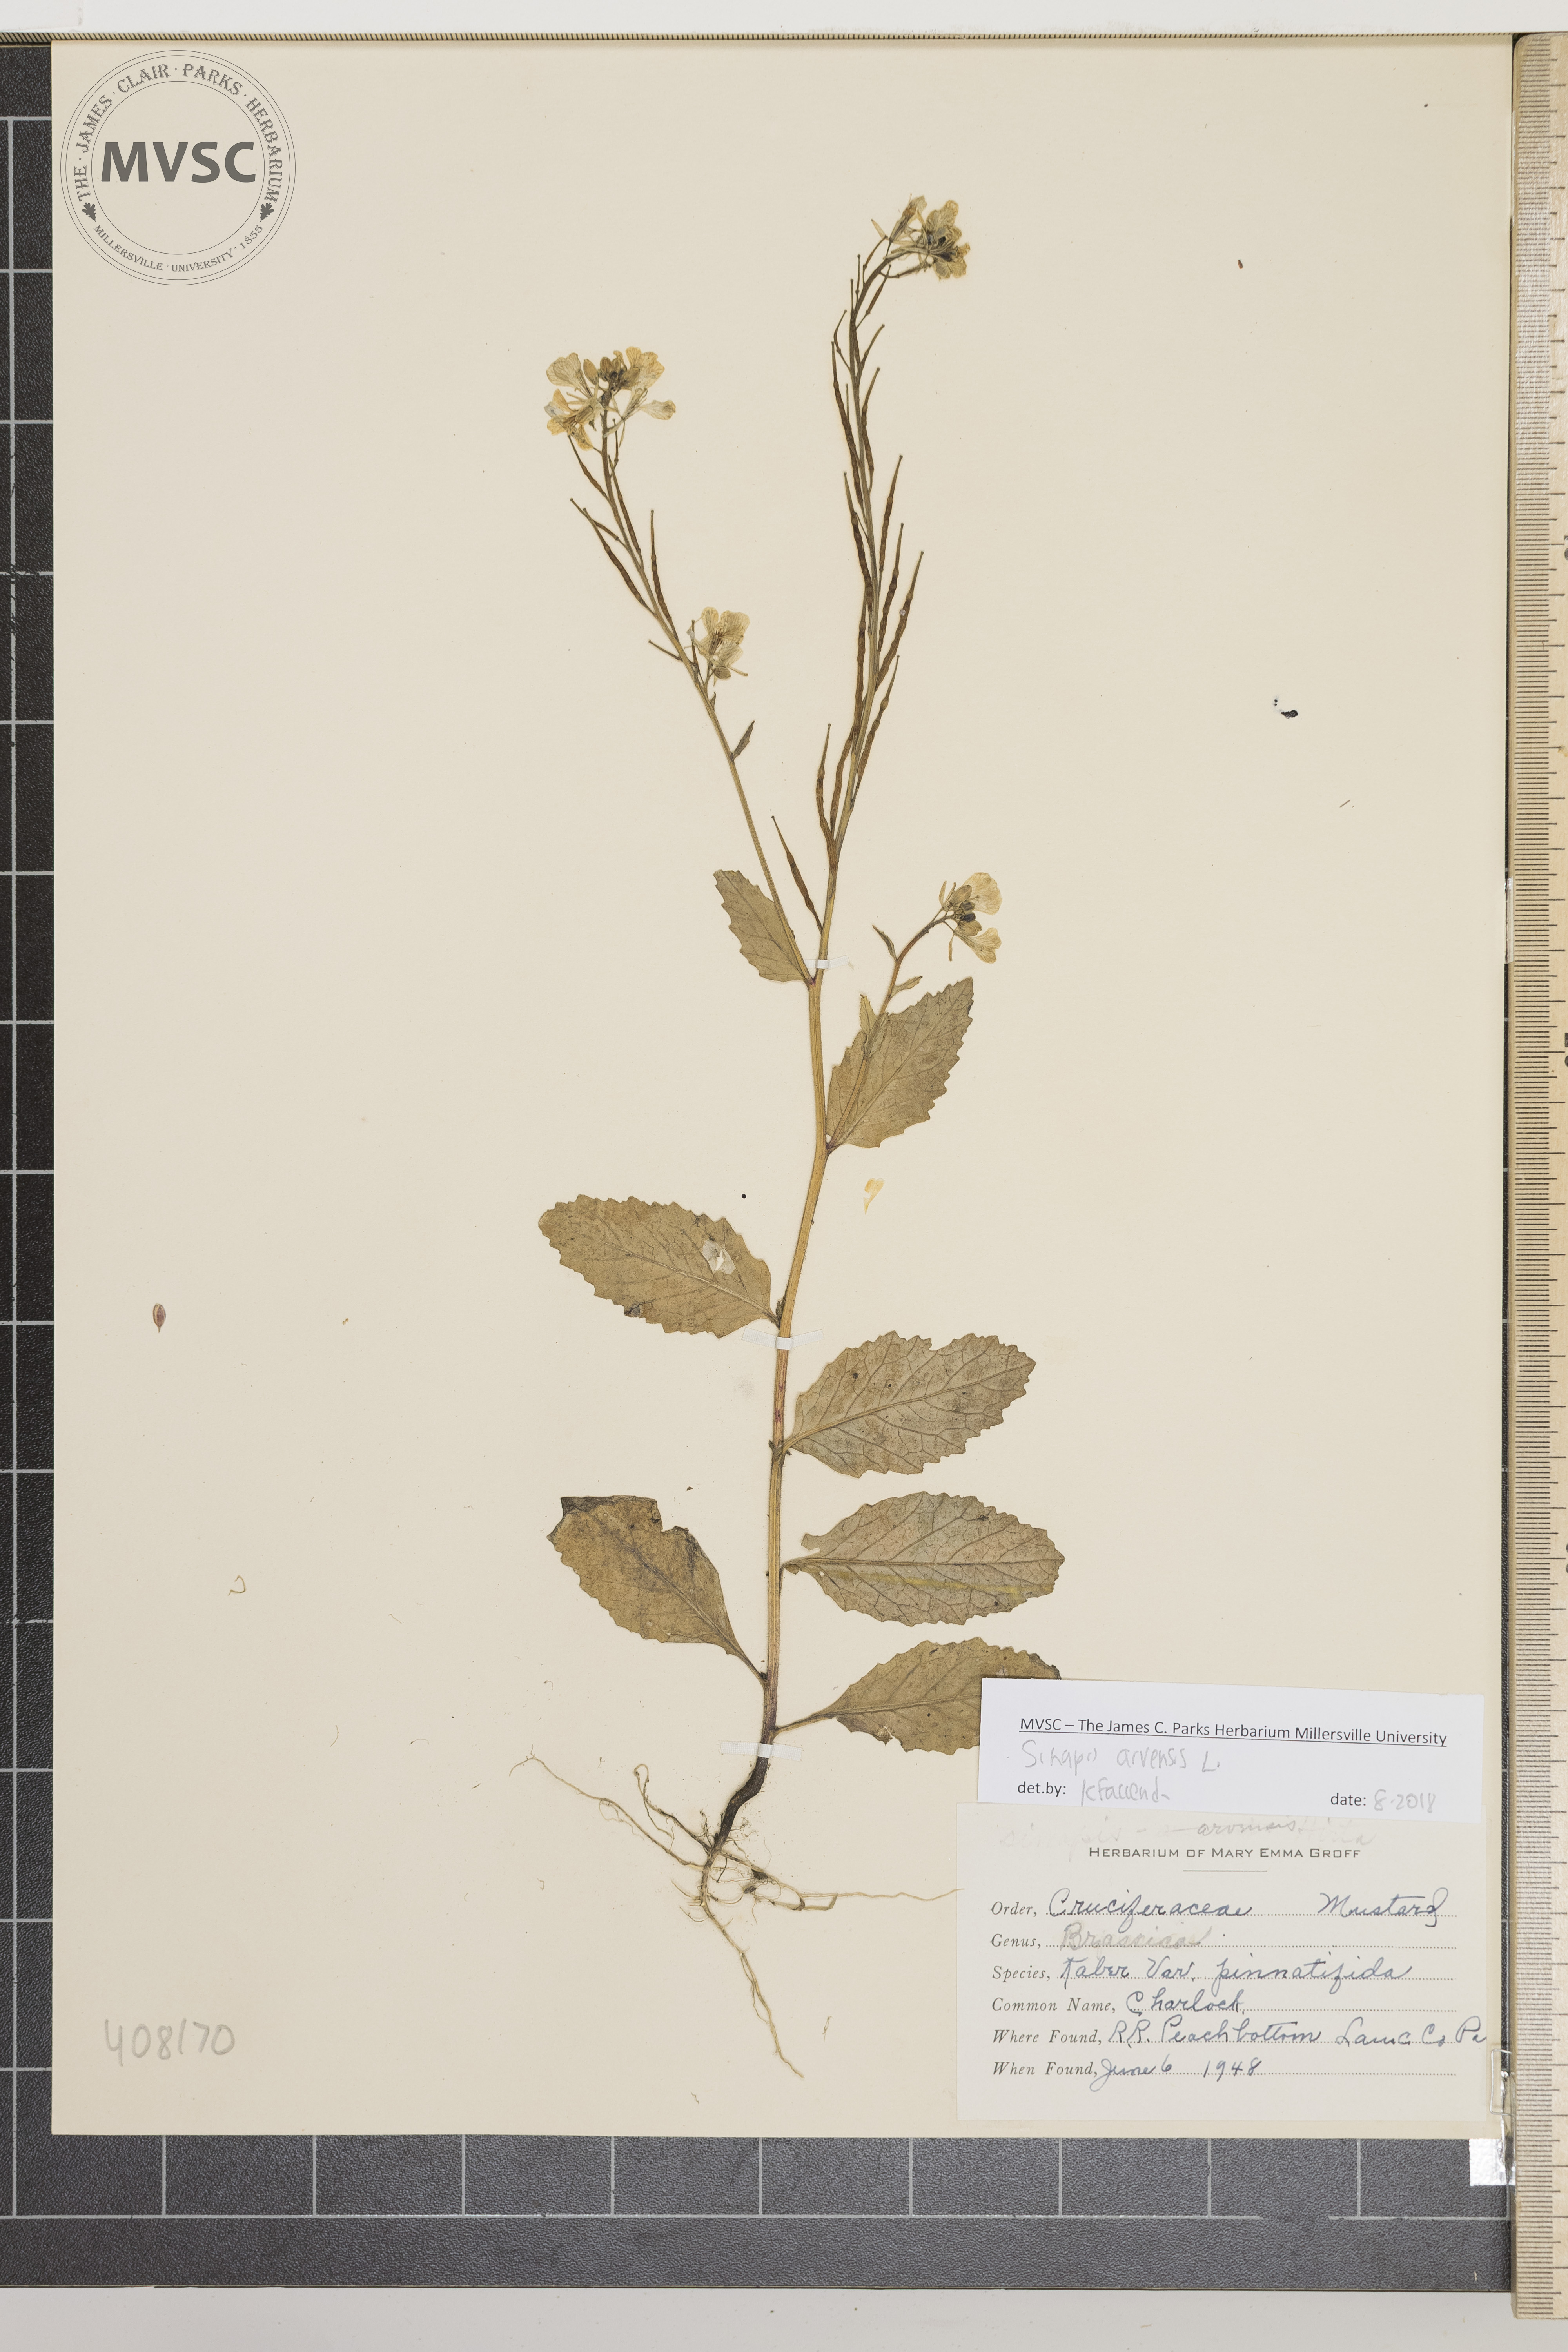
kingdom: Plantae
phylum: Tracheophyta
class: Magnoliopsida
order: Brassicales
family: Brassicaceae
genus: Sinapis
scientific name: Sinapis arvensis
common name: Charlock
